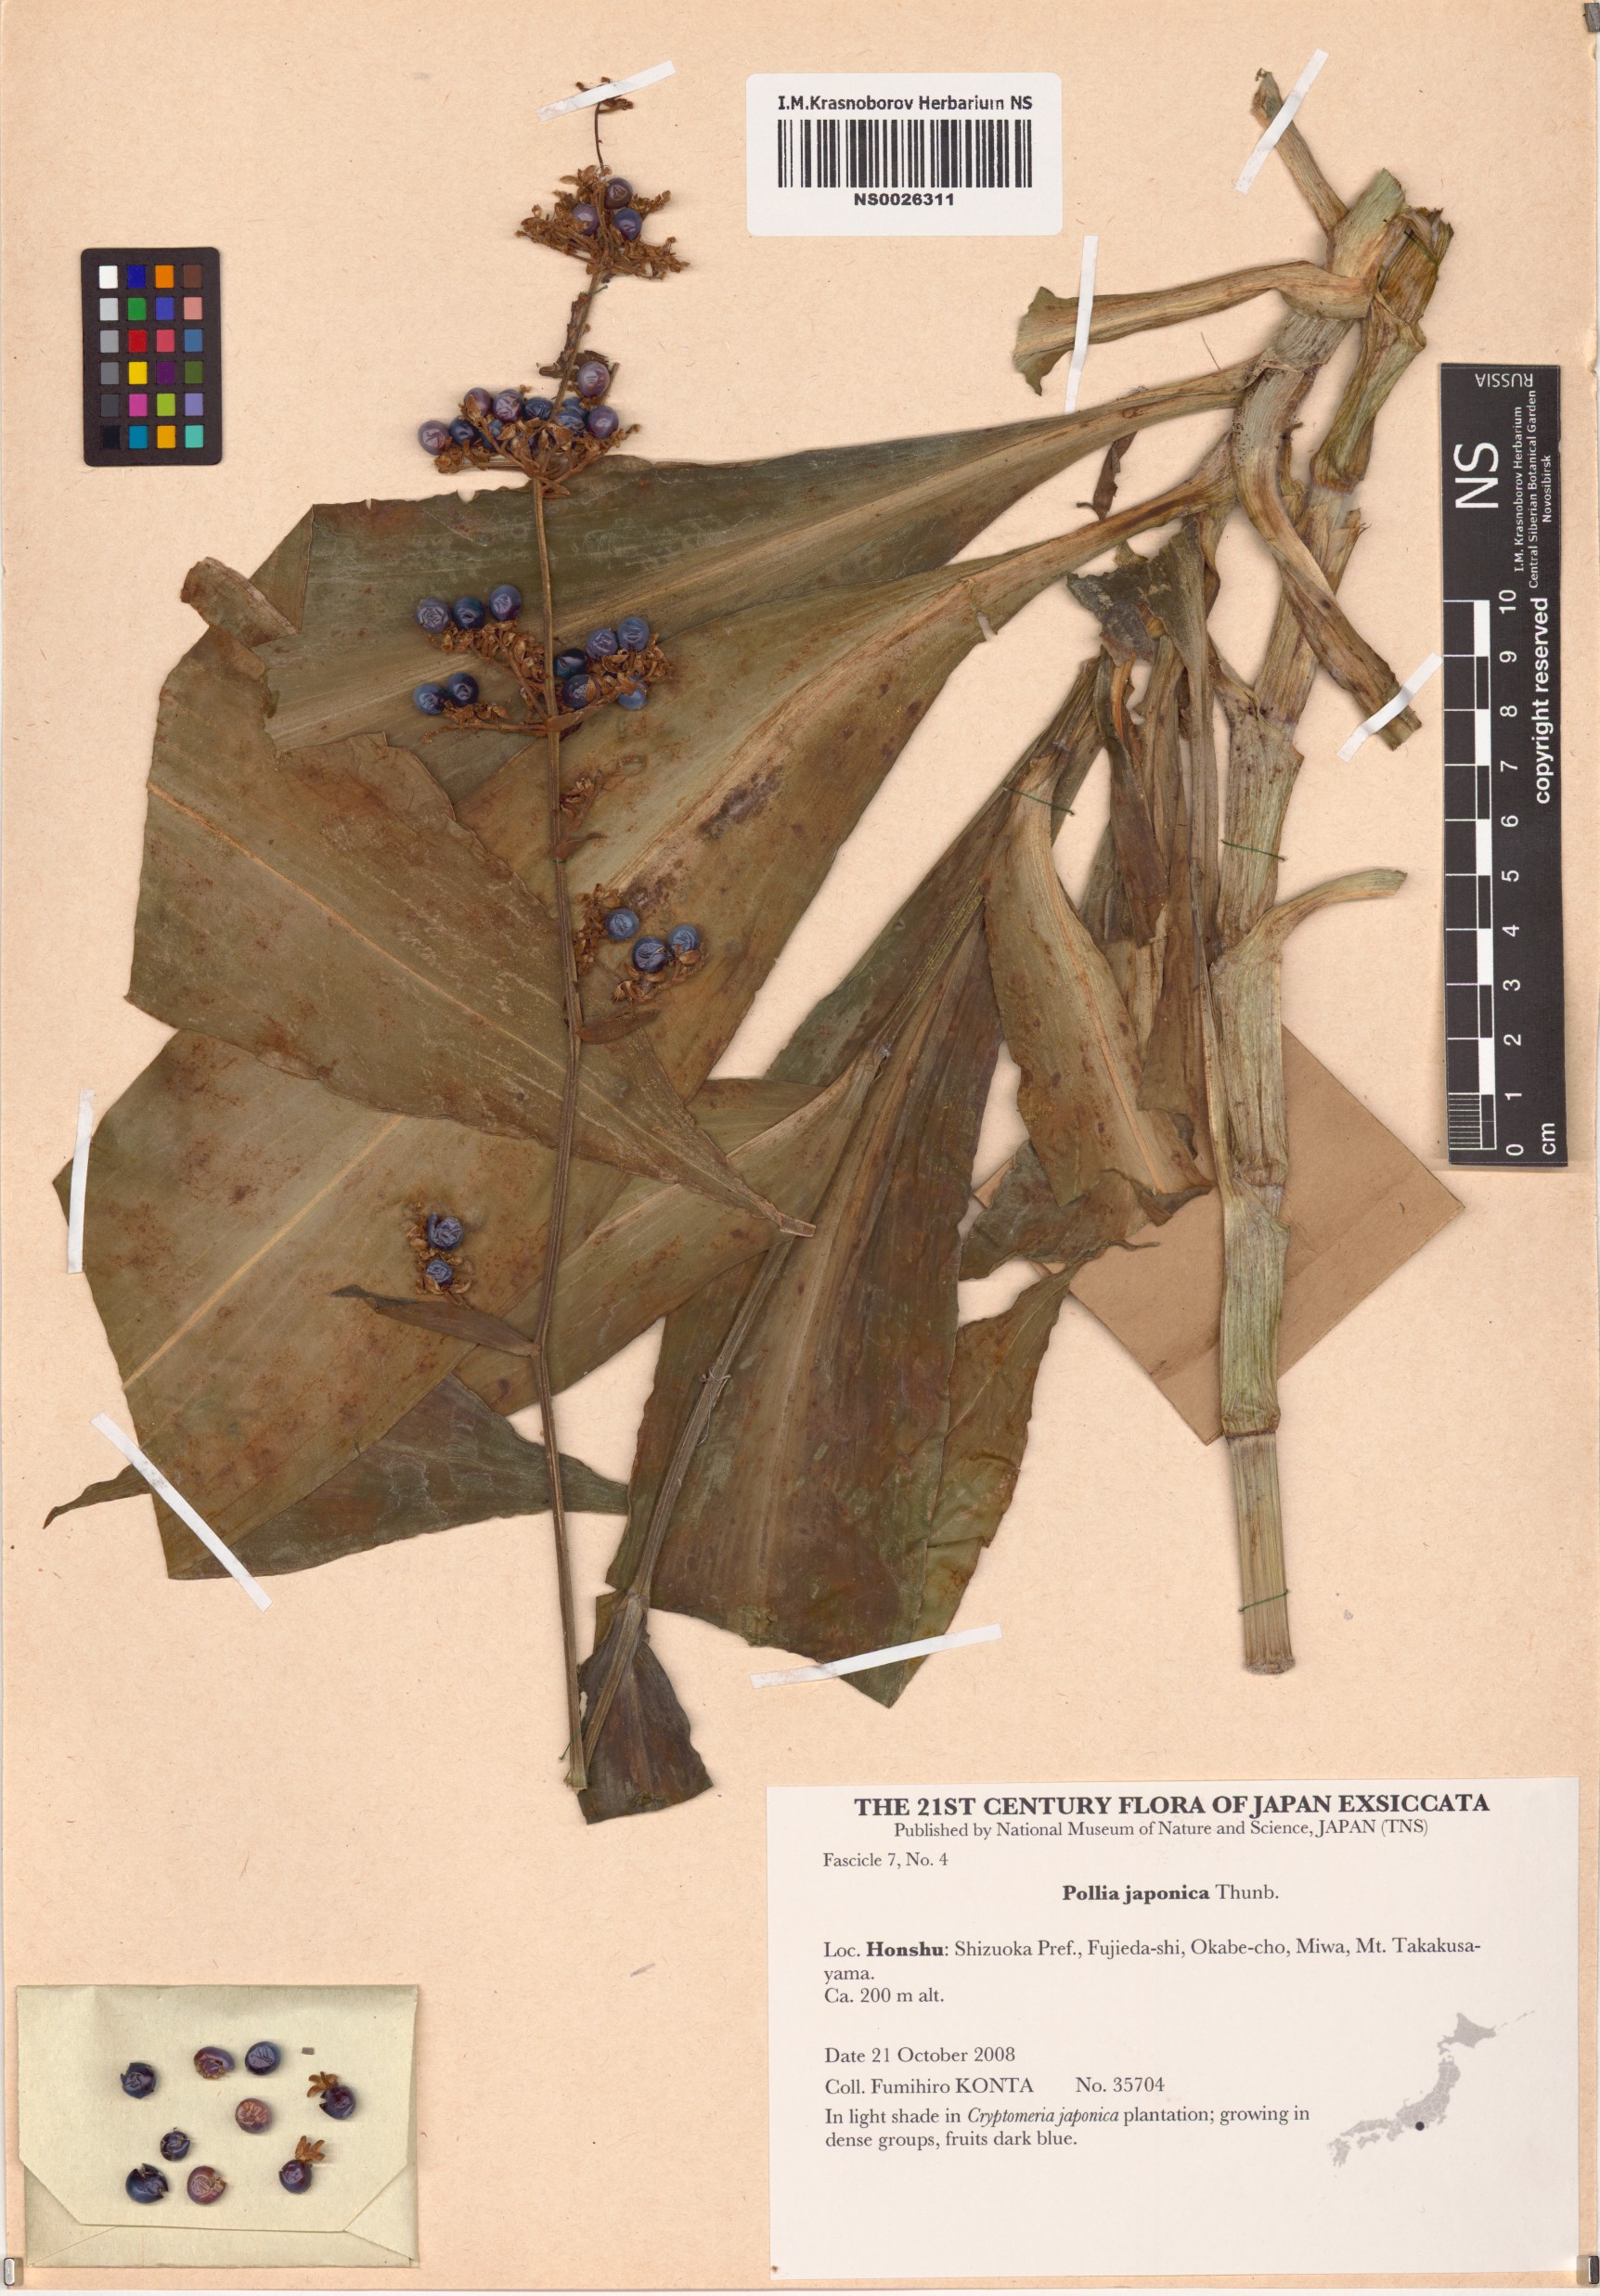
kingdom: Plantae
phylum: Tracheophyta
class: Liliopsida
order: Commelinales
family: Commelinaceae
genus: Pollia
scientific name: Pollia japonica
